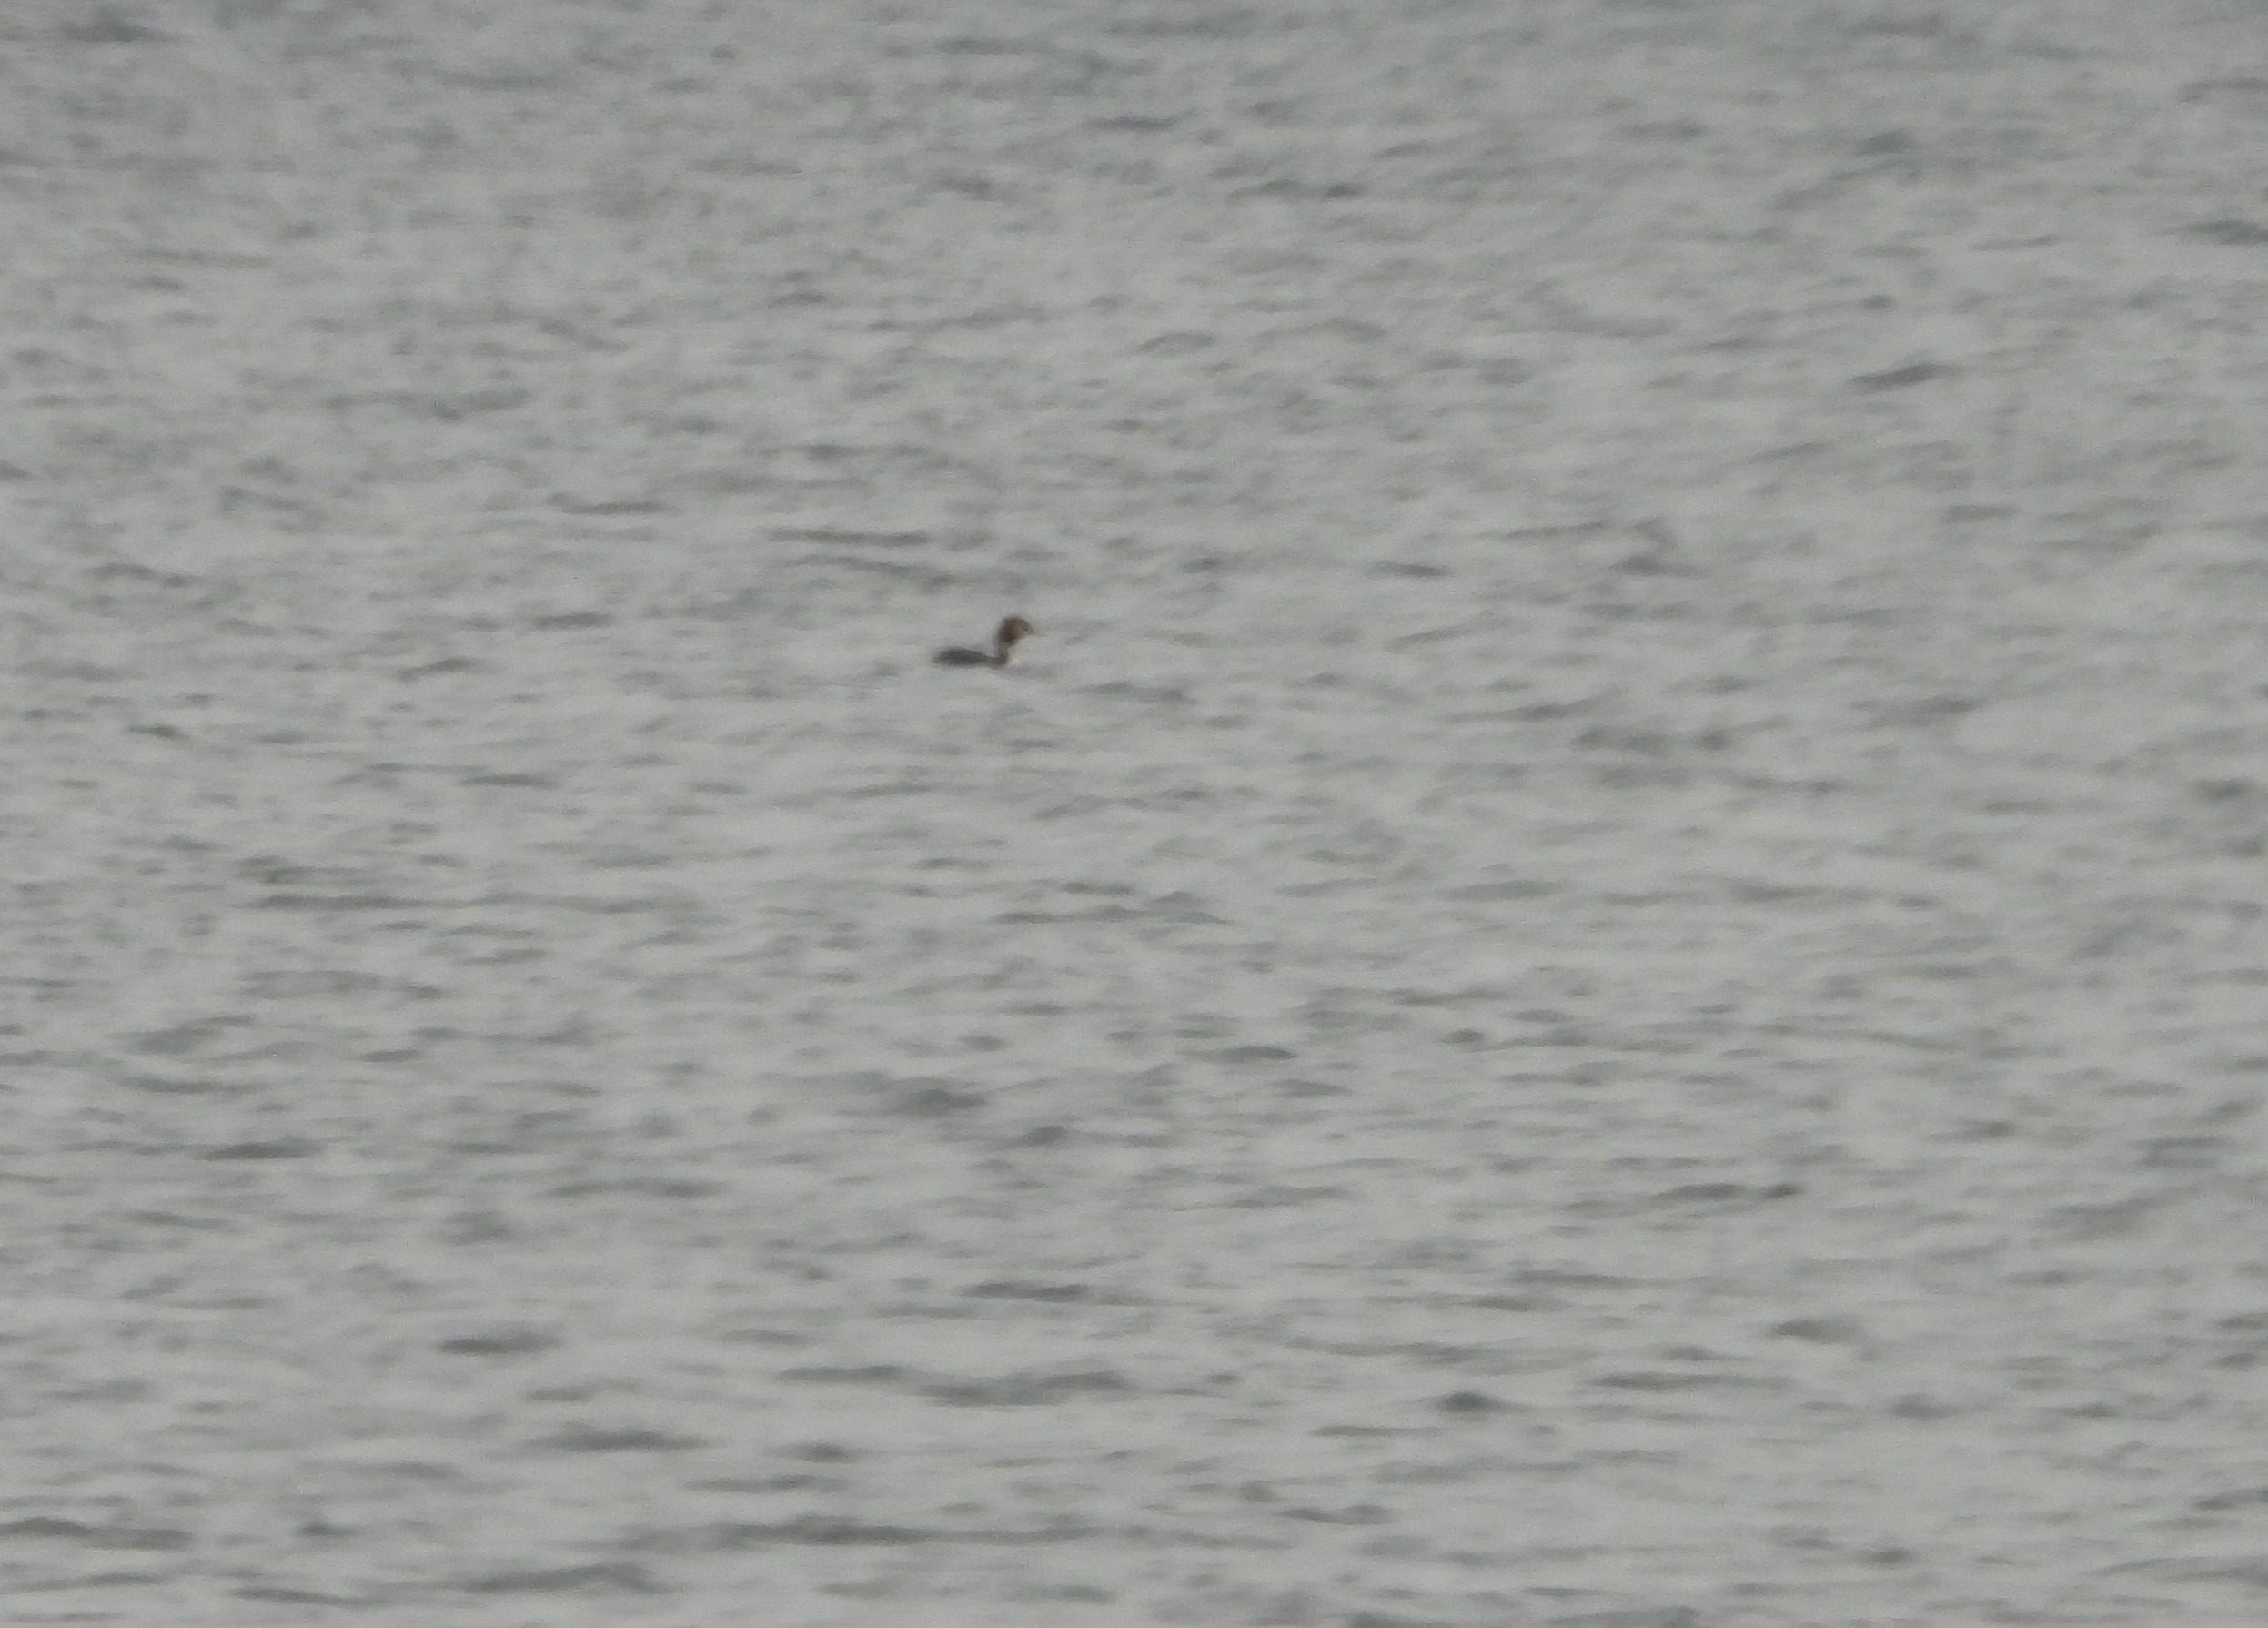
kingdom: Animalia
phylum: Chordata
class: Aves
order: Podicipediformes
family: Podicipedidae
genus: Podiceps
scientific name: Podiceps cristatus
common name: Toppet lappedykker
